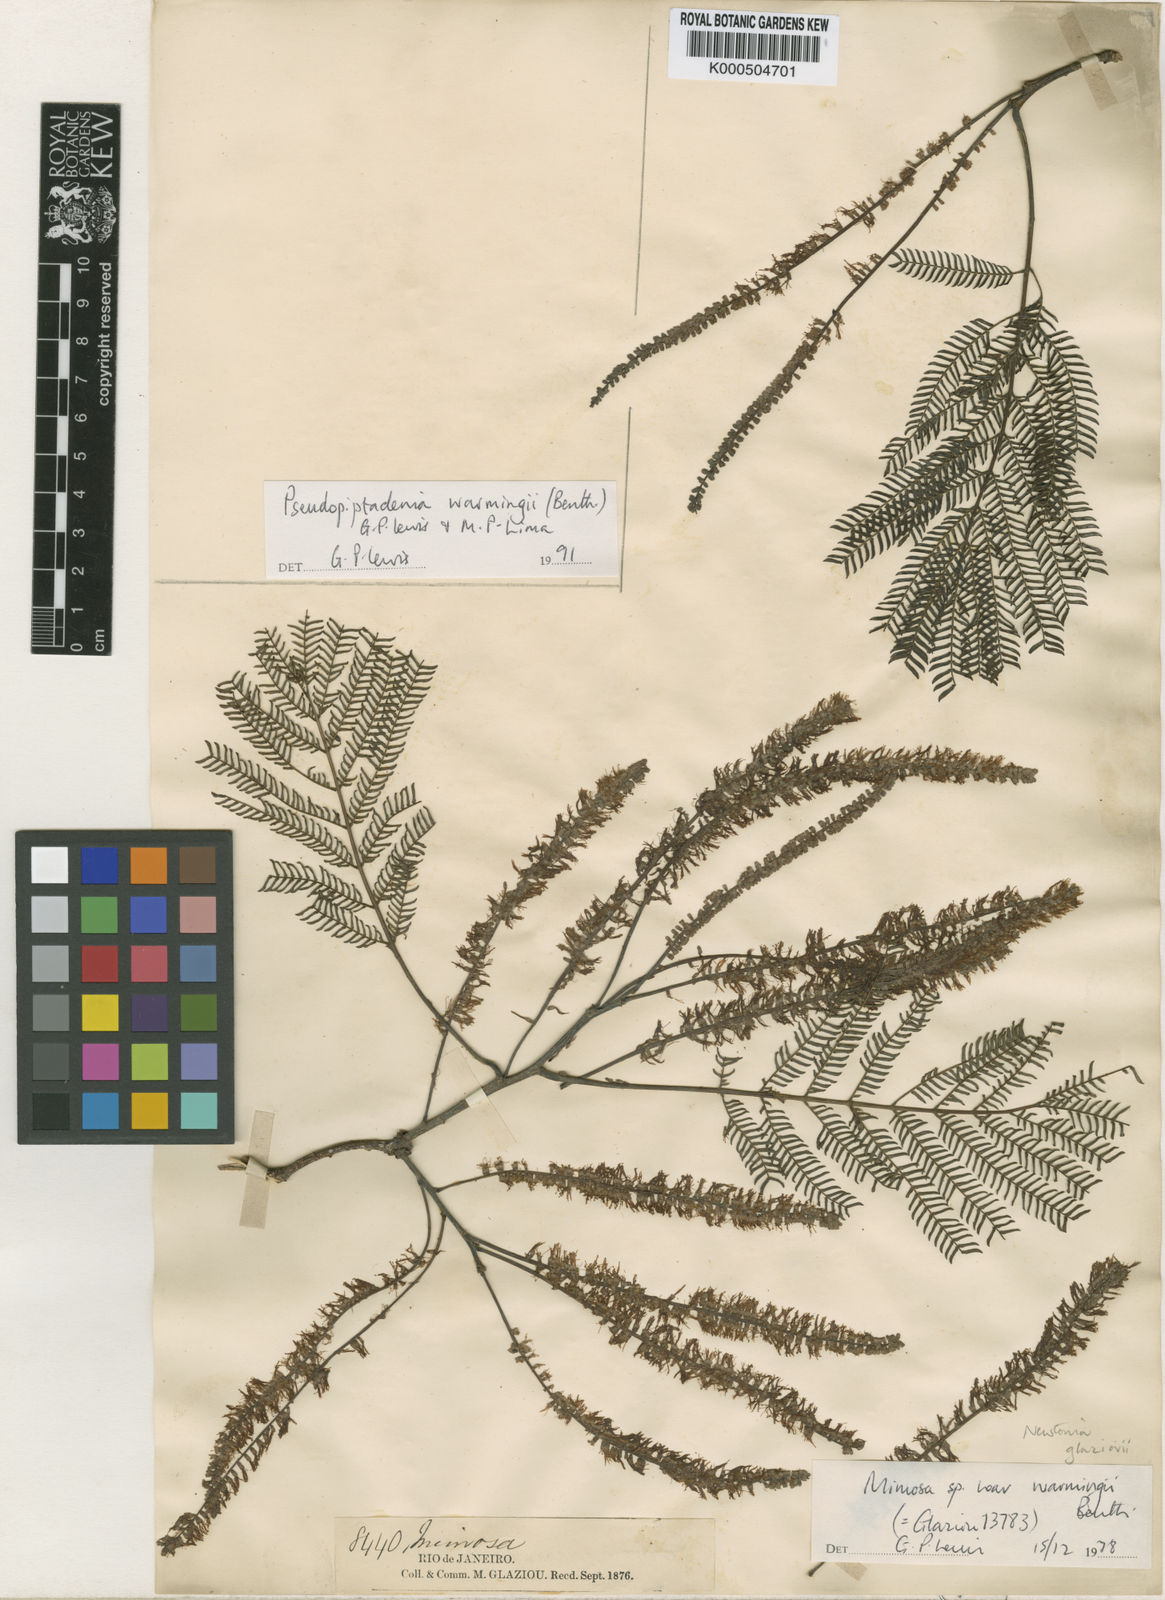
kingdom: Plantae
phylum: Tracheophyta
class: Magnoliopsida
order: Fabales
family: Fabaceae
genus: Pseudopiptadenia
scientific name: Pseudopiptadenia warmingii
